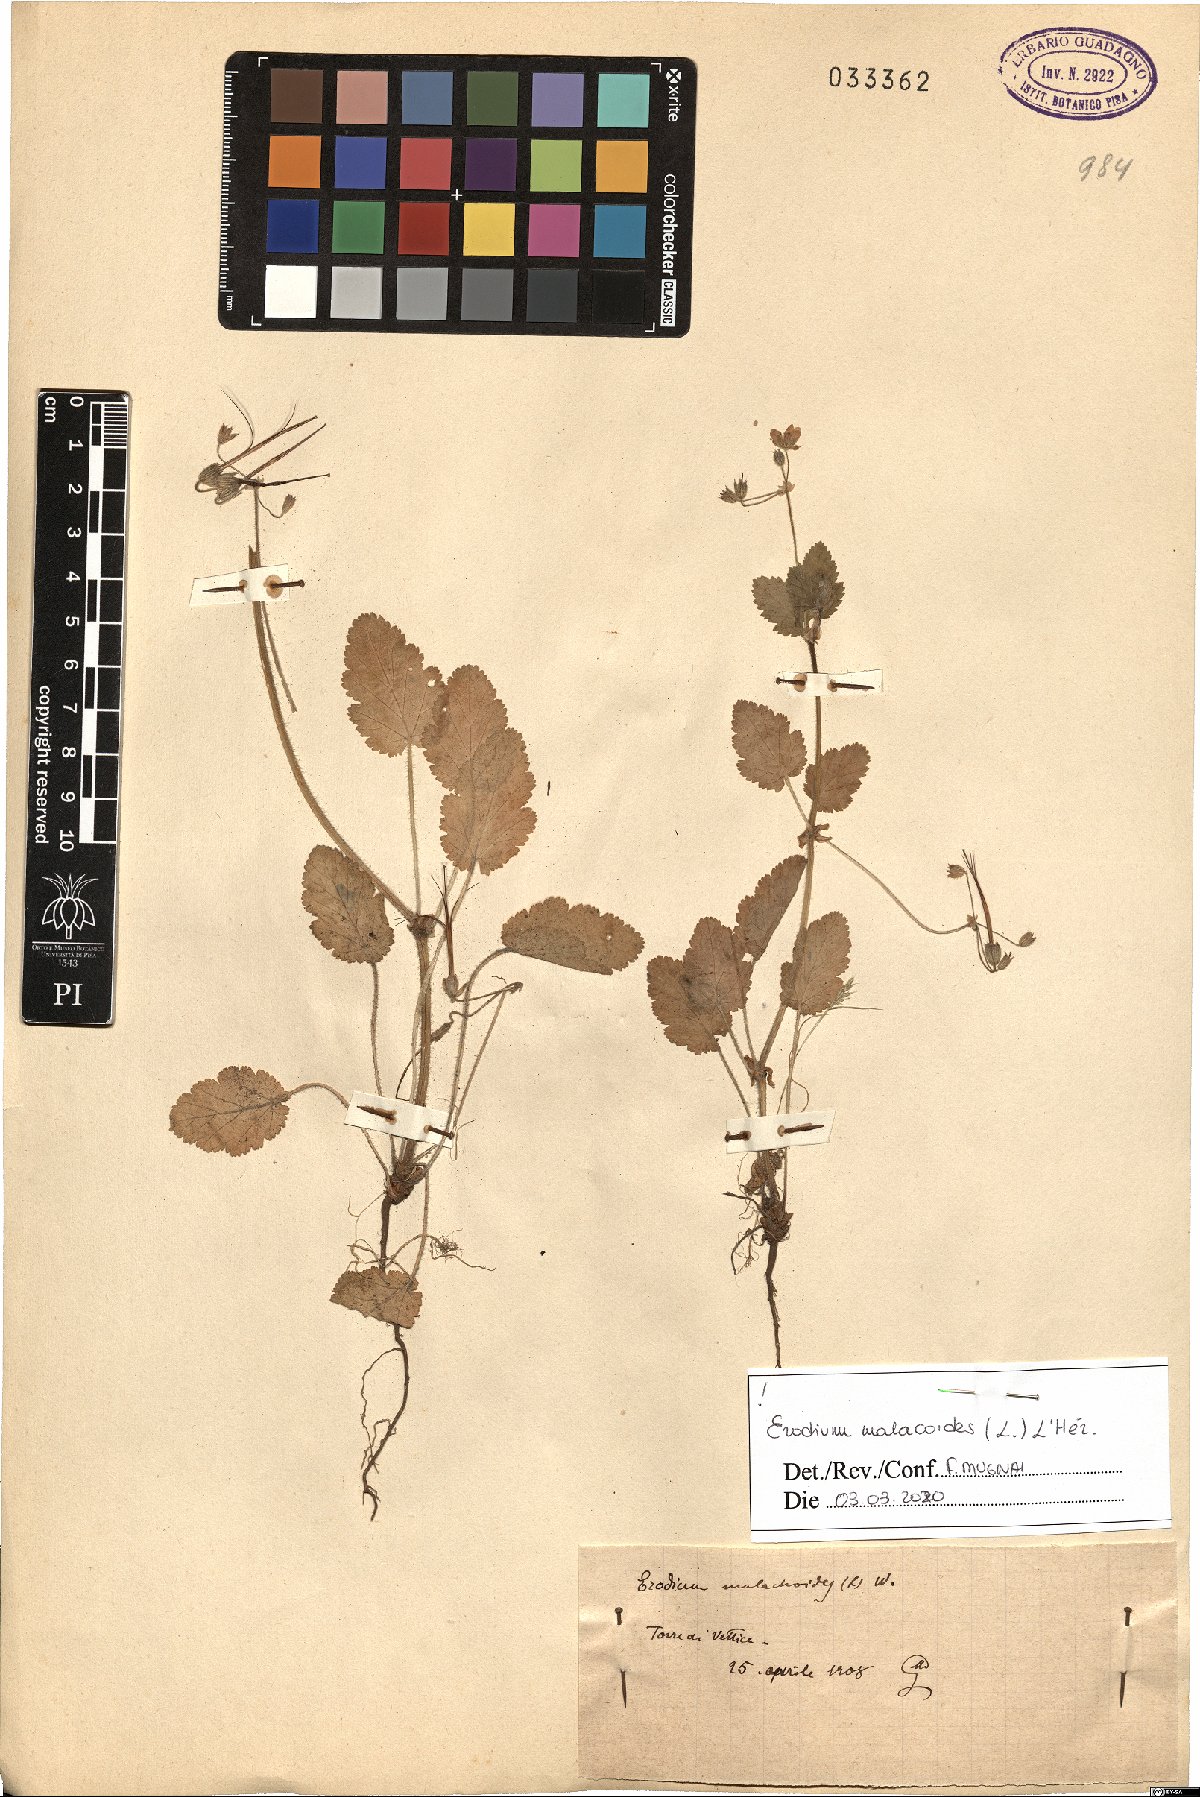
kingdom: Plantae
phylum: Tracheophyta
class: Magnoliopsida
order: Geraniales
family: Geraniaceae
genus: Erodium
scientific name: Erodium malacoides
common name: Soft stork's-bill
